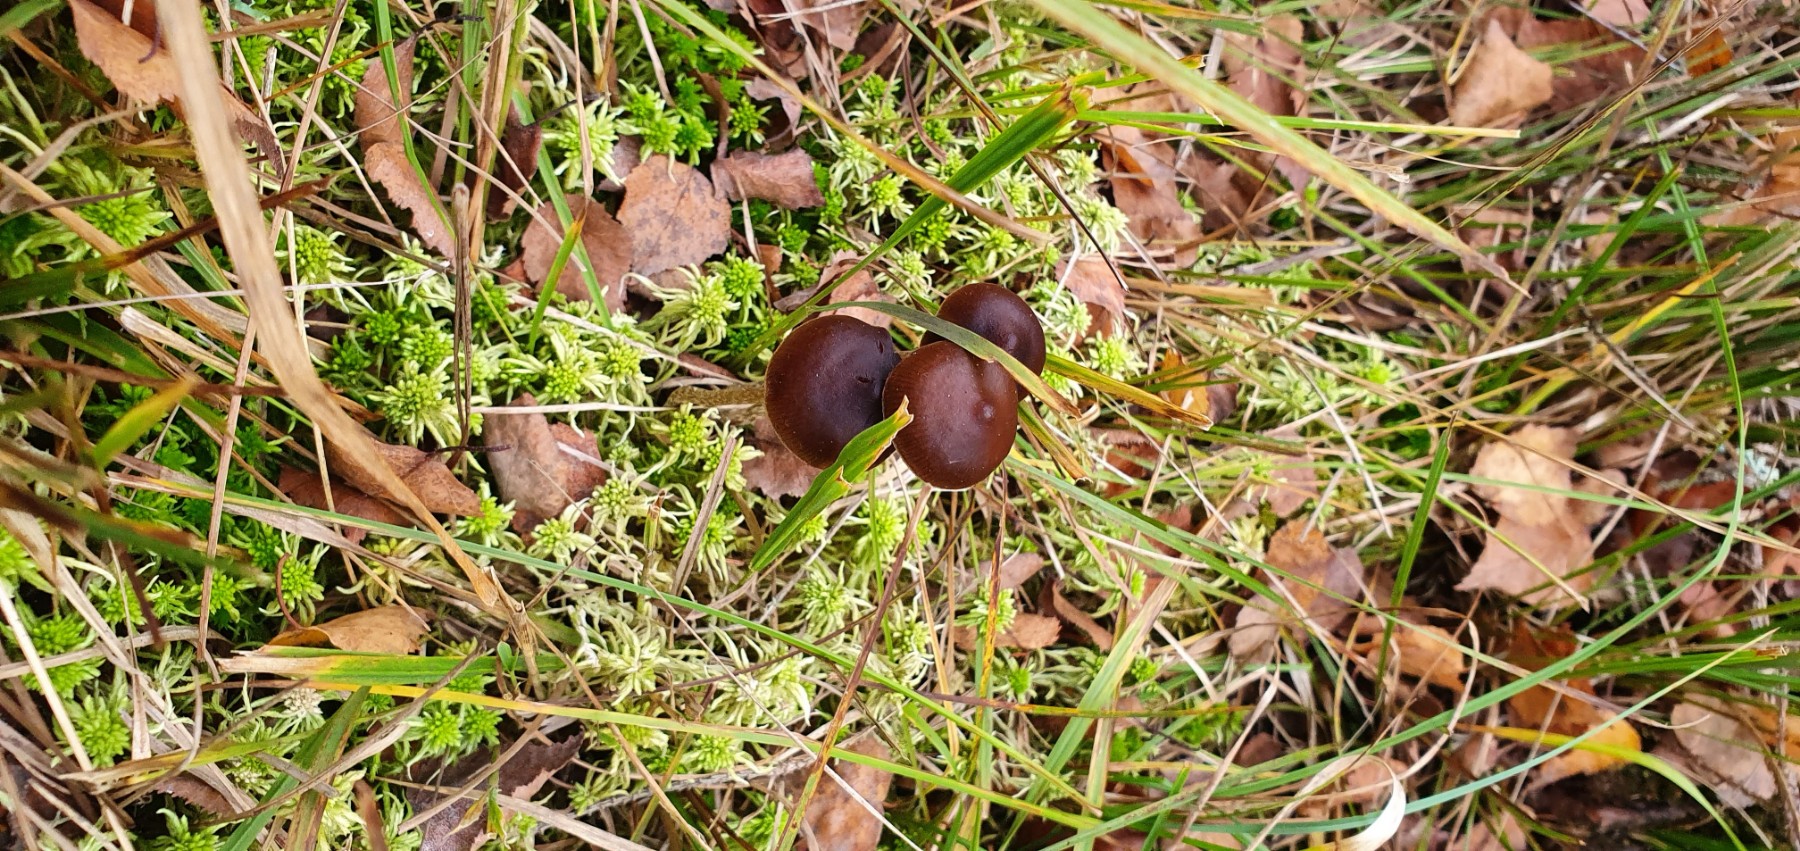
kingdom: Fungi
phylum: Basidiomycota
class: Agaricomycetes
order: Agaricales
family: Hymenogastraceae
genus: Psilocybe
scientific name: Psilocybe fimetaria
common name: prægtig nøgenhat
